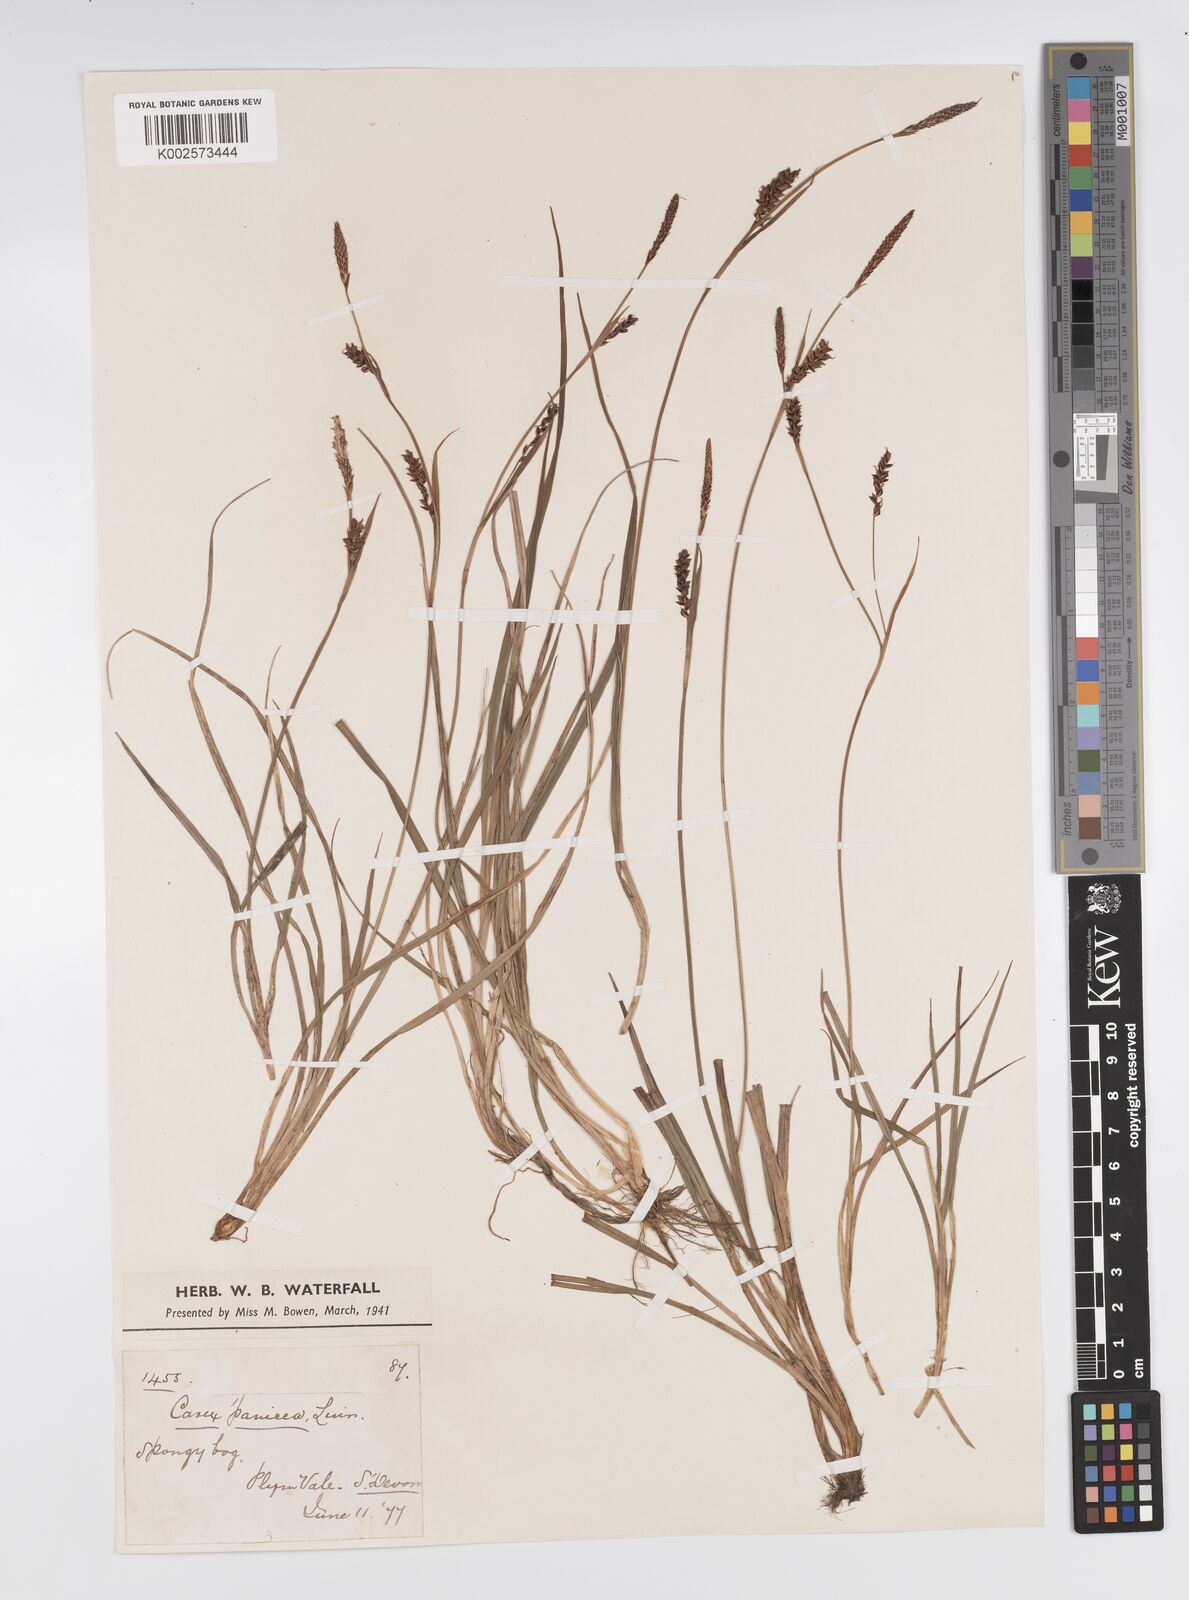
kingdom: Plantae
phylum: Tracheophyta
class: Liliopsida
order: Poales
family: Cyperaceae
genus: Carex
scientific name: Carex panicea
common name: Carnation sedge
